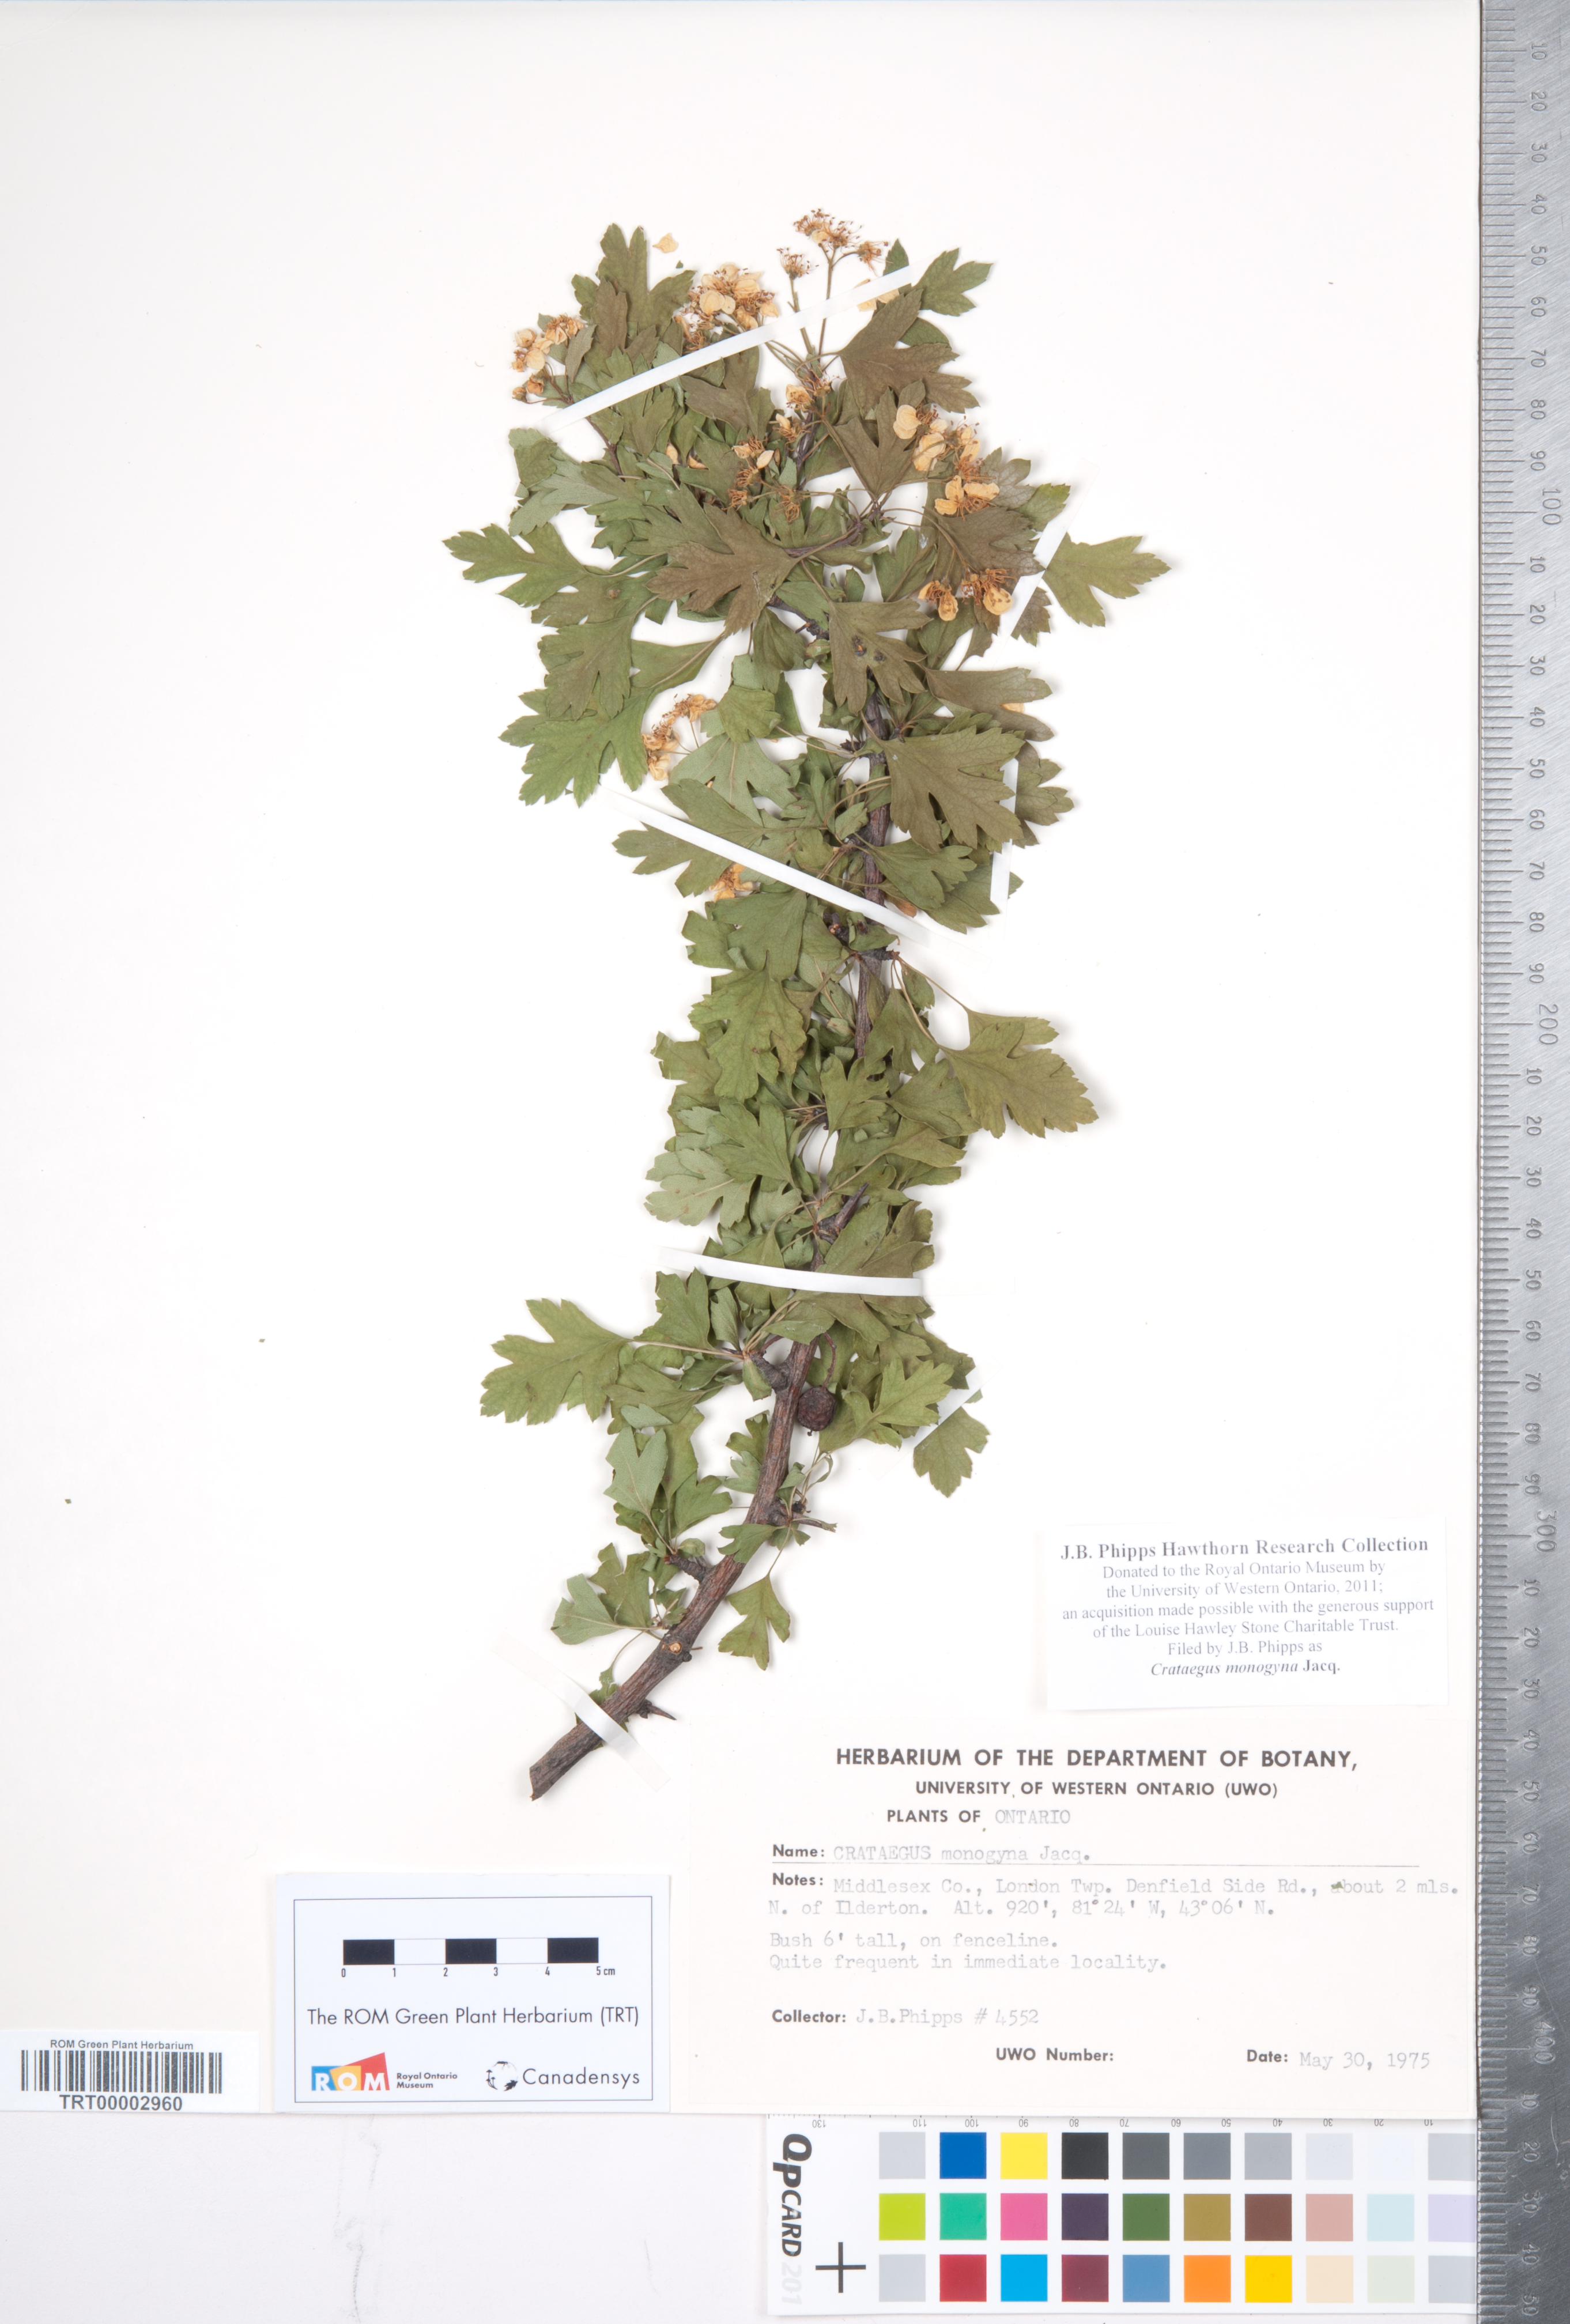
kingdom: Plantae
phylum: Tracheophyta
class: Magnoliopsida
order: Rosales
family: Rosaceae
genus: Crataegus
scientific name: Crataegus monogyna
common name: Hawthorn
